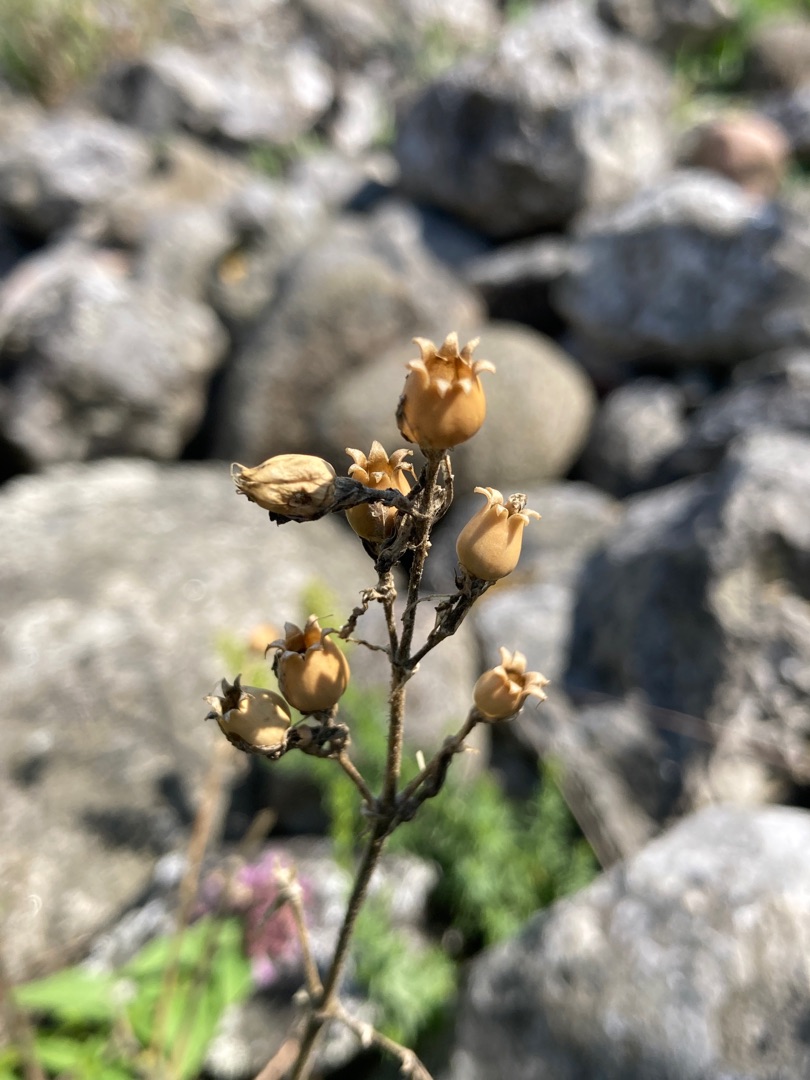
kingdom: Plantae
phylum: Tracheophyta
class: Magnoliopsida
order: Caryophyllales
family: Caryophyllaceae
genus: Silene
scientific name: Silene nutans
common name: Nikkende limurt
